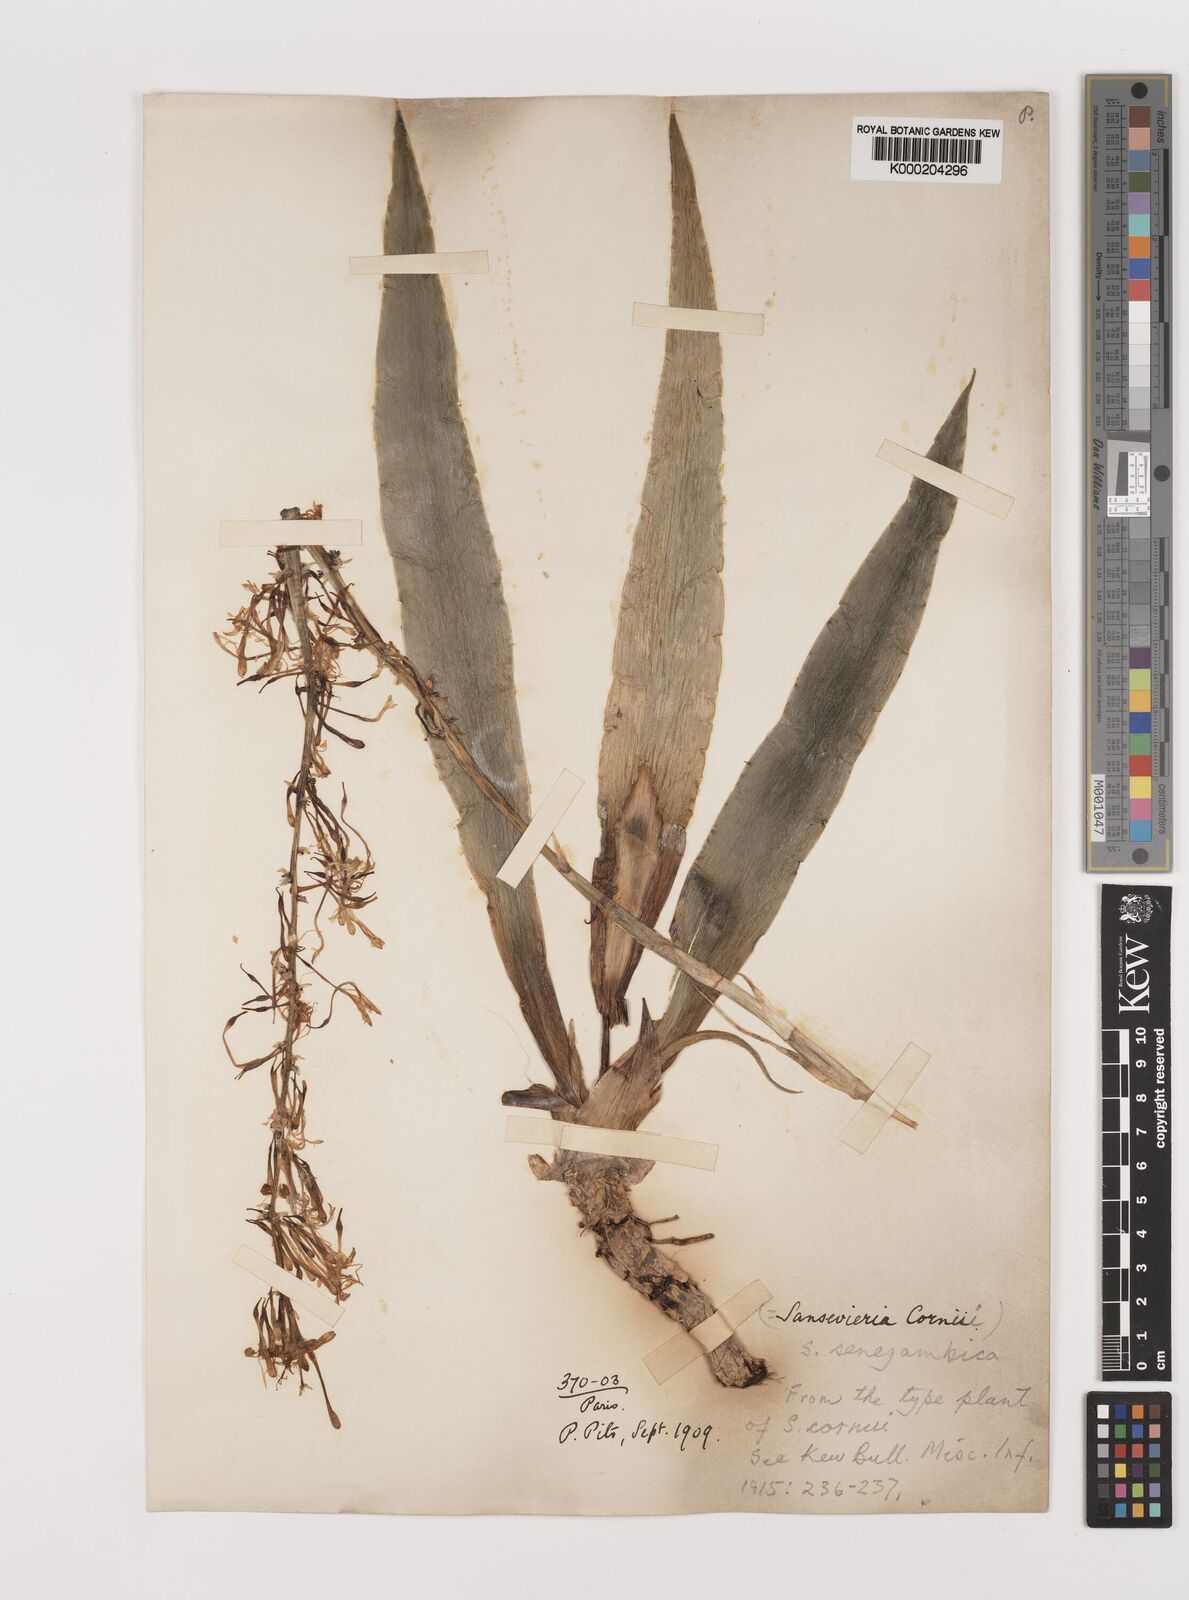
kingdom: Plantae
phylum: Tracheophyta
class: Liliopsida
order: Asparagales
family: Asparagaceae
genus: Dracaena
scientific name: Dracaena senegambica
